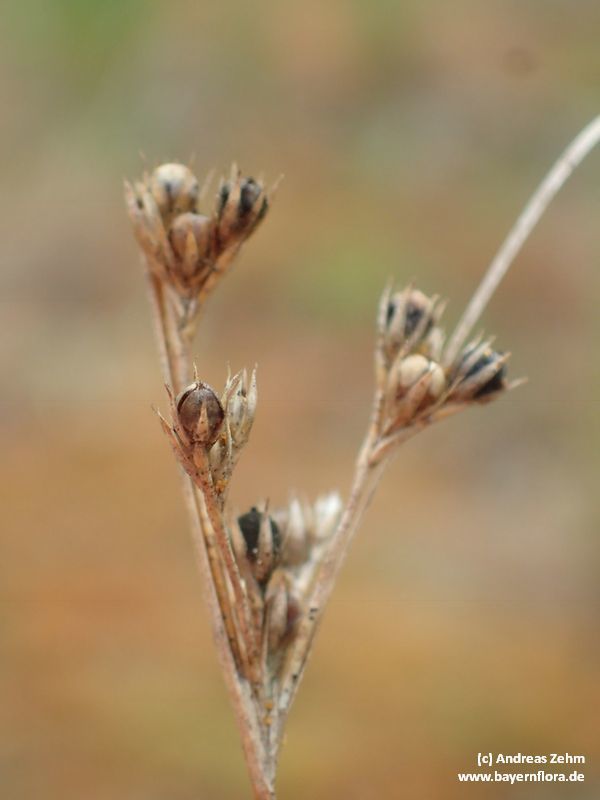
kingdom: Plantae
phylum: Tracheophyta
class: Liliopsida
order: Poales
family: Juncaceae
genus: Juncus
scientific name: Juncus tenuis
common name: Slender rush
